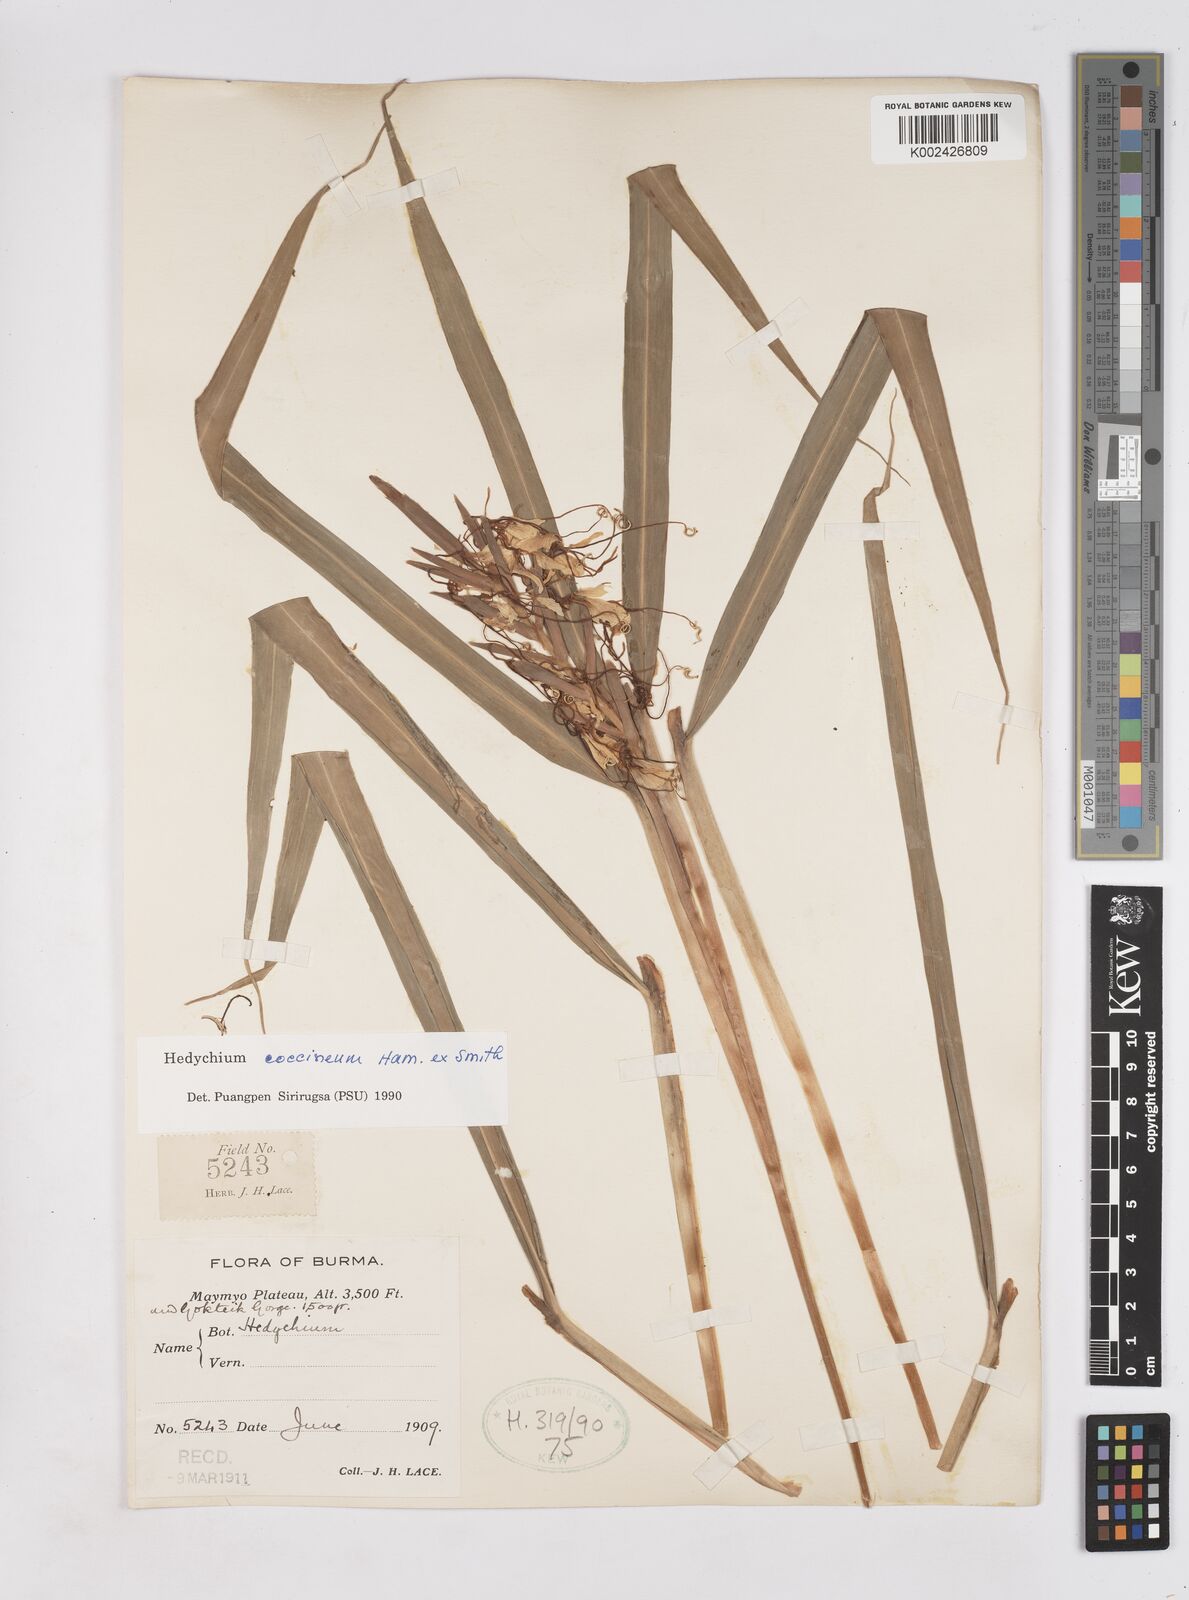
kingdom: Plantae
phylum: Tracheophyta
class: Liliopsida
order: Zingiberales
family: Zingiberaceae
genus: Hedychium
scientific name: Hedychium coccineum
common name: Red ginger-lily
